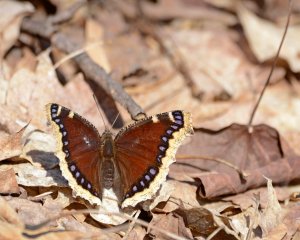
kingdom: Animalia
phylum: Arthropoda
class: Insecta
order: Lepidoptera
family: Nymphalidae
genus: Nymphalis
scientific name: Nymphalis antiopa
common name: Mourning Cloak
